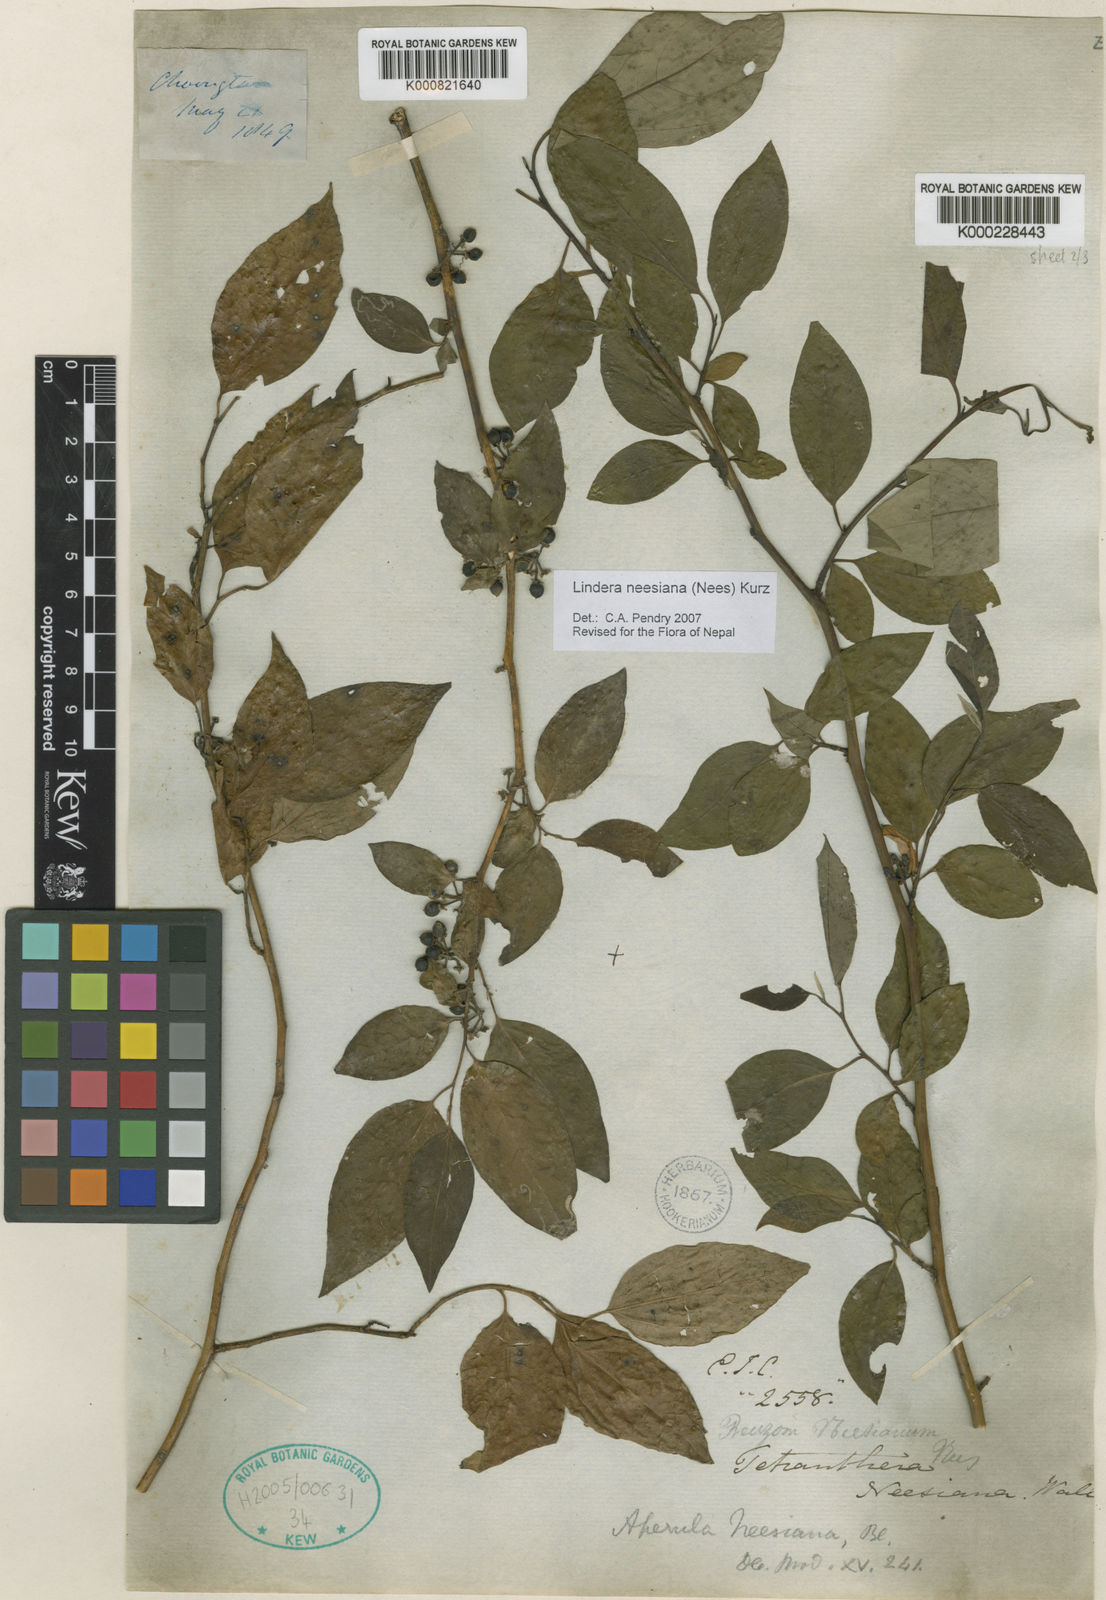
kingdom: Plantae
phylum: Tracheophyta
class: Magnoliopsida
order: Laurales
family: Lauraceae
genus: Lindera
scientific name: Lindera
